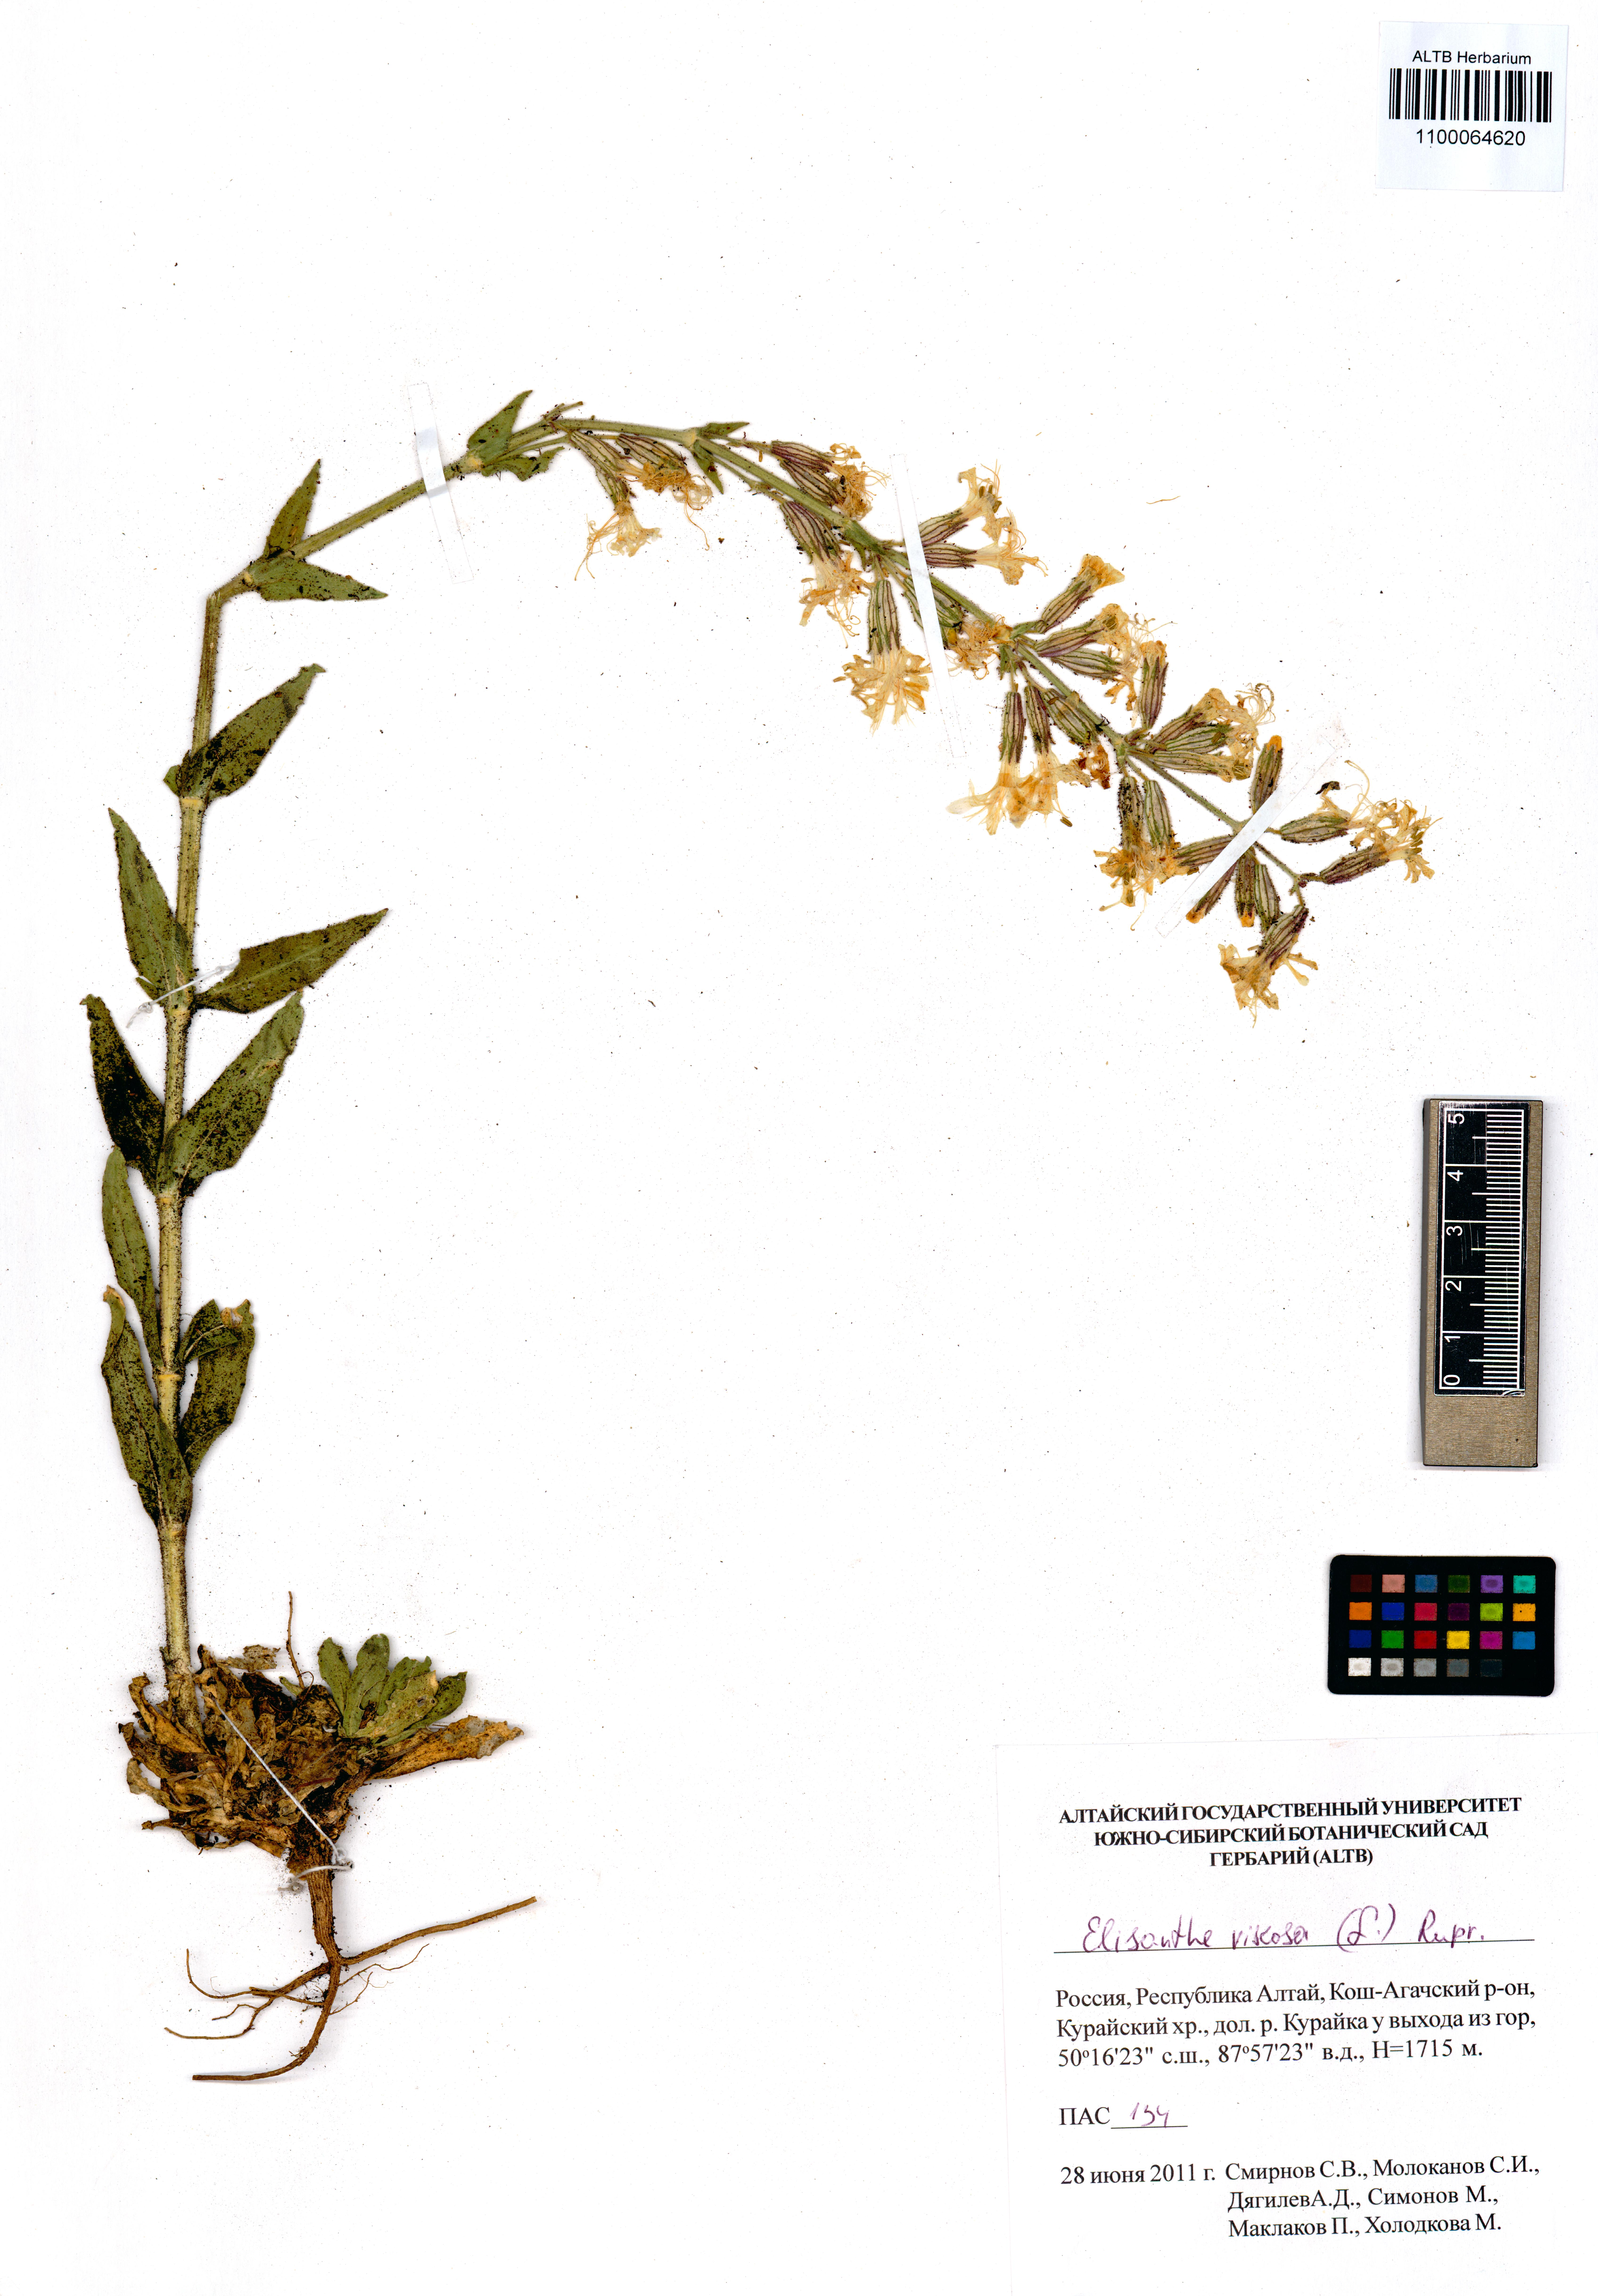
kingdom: Plantae
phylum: Tracheophyta
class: Magnoliopsida
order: Caryophyllales
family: Caryophyllaceae
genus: Silene
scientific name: Silene viscosa
